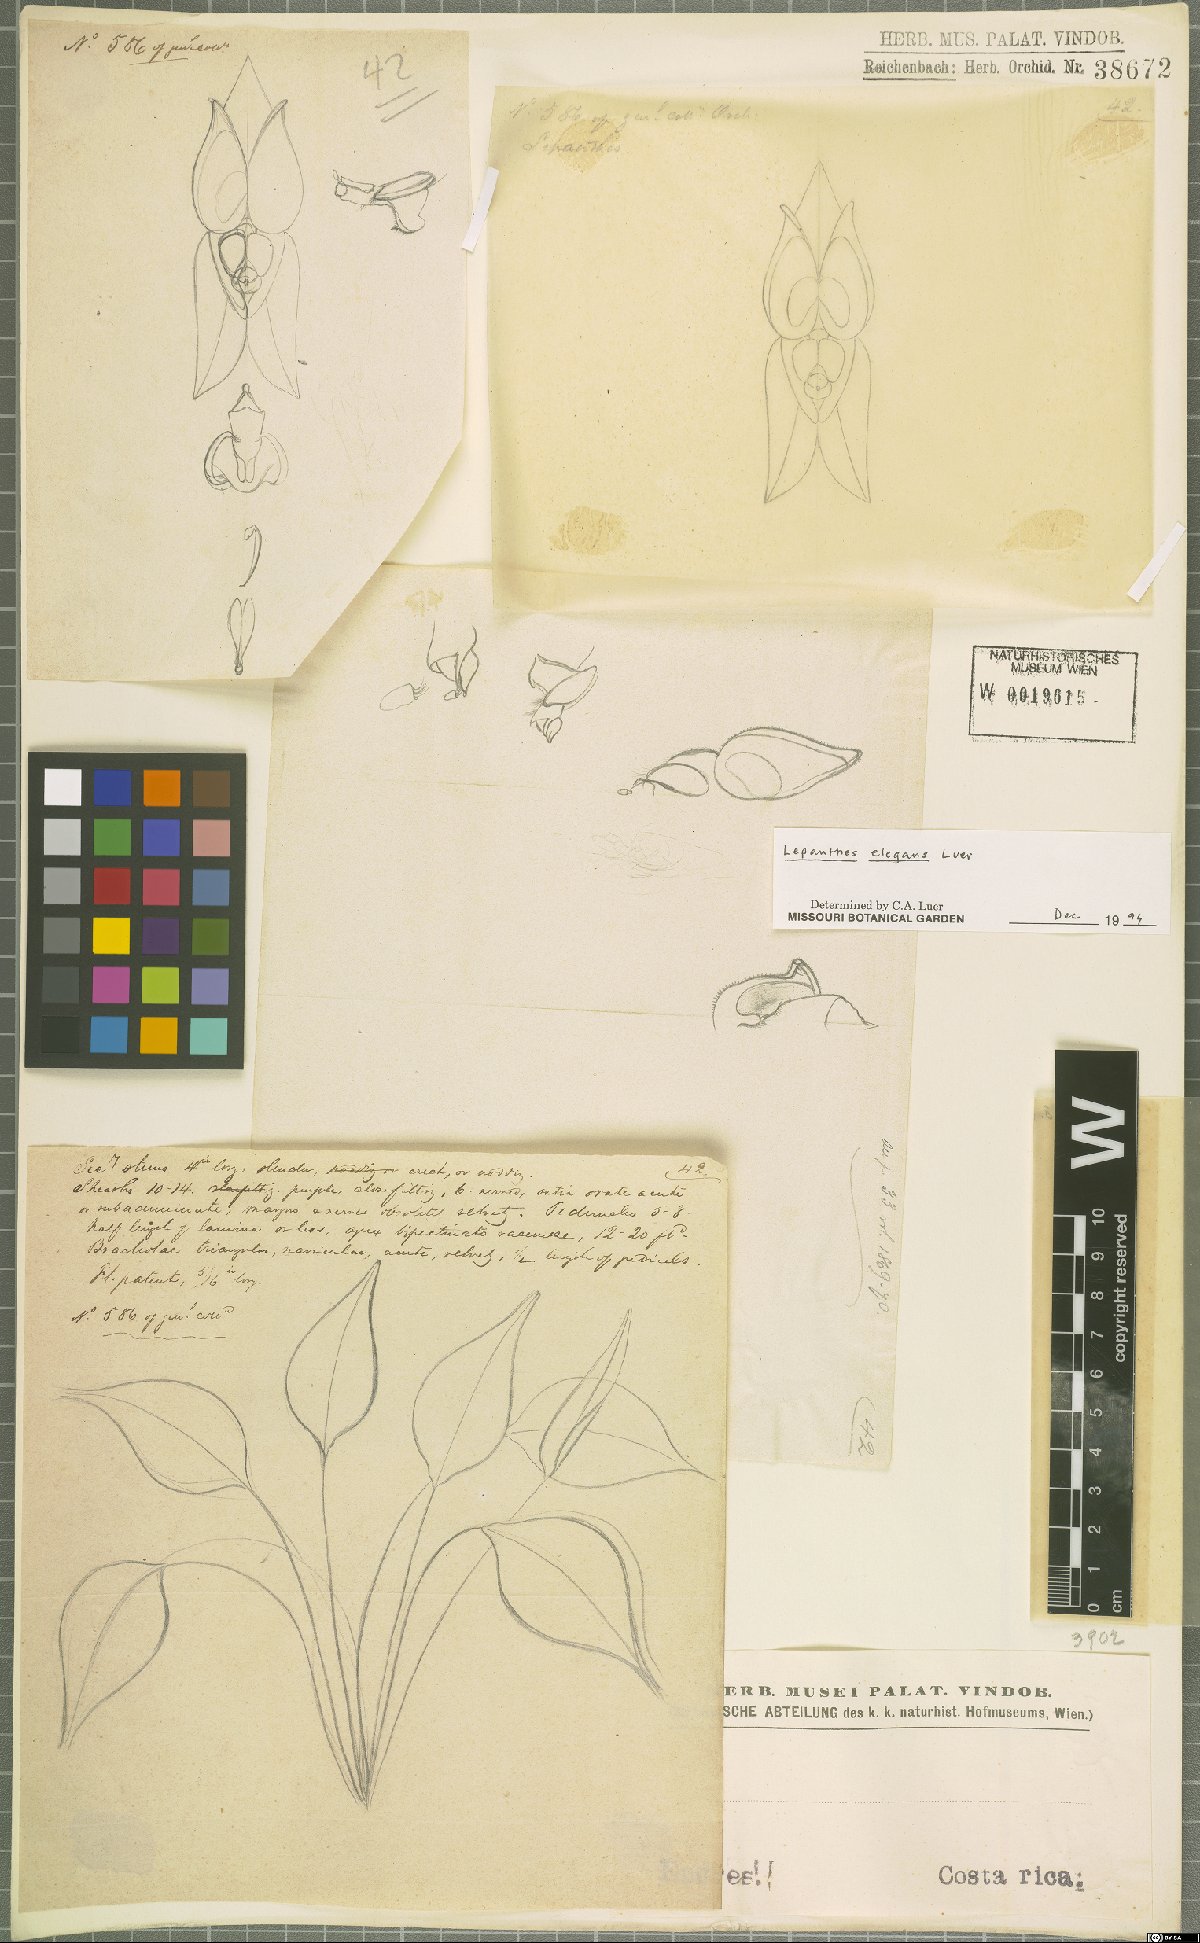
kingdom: Plantae
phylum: Tracheophyta
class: Liliopsida
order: Asparagales
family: Orchidaceae
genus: Lepanthes
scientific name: Lepanthes elegans
